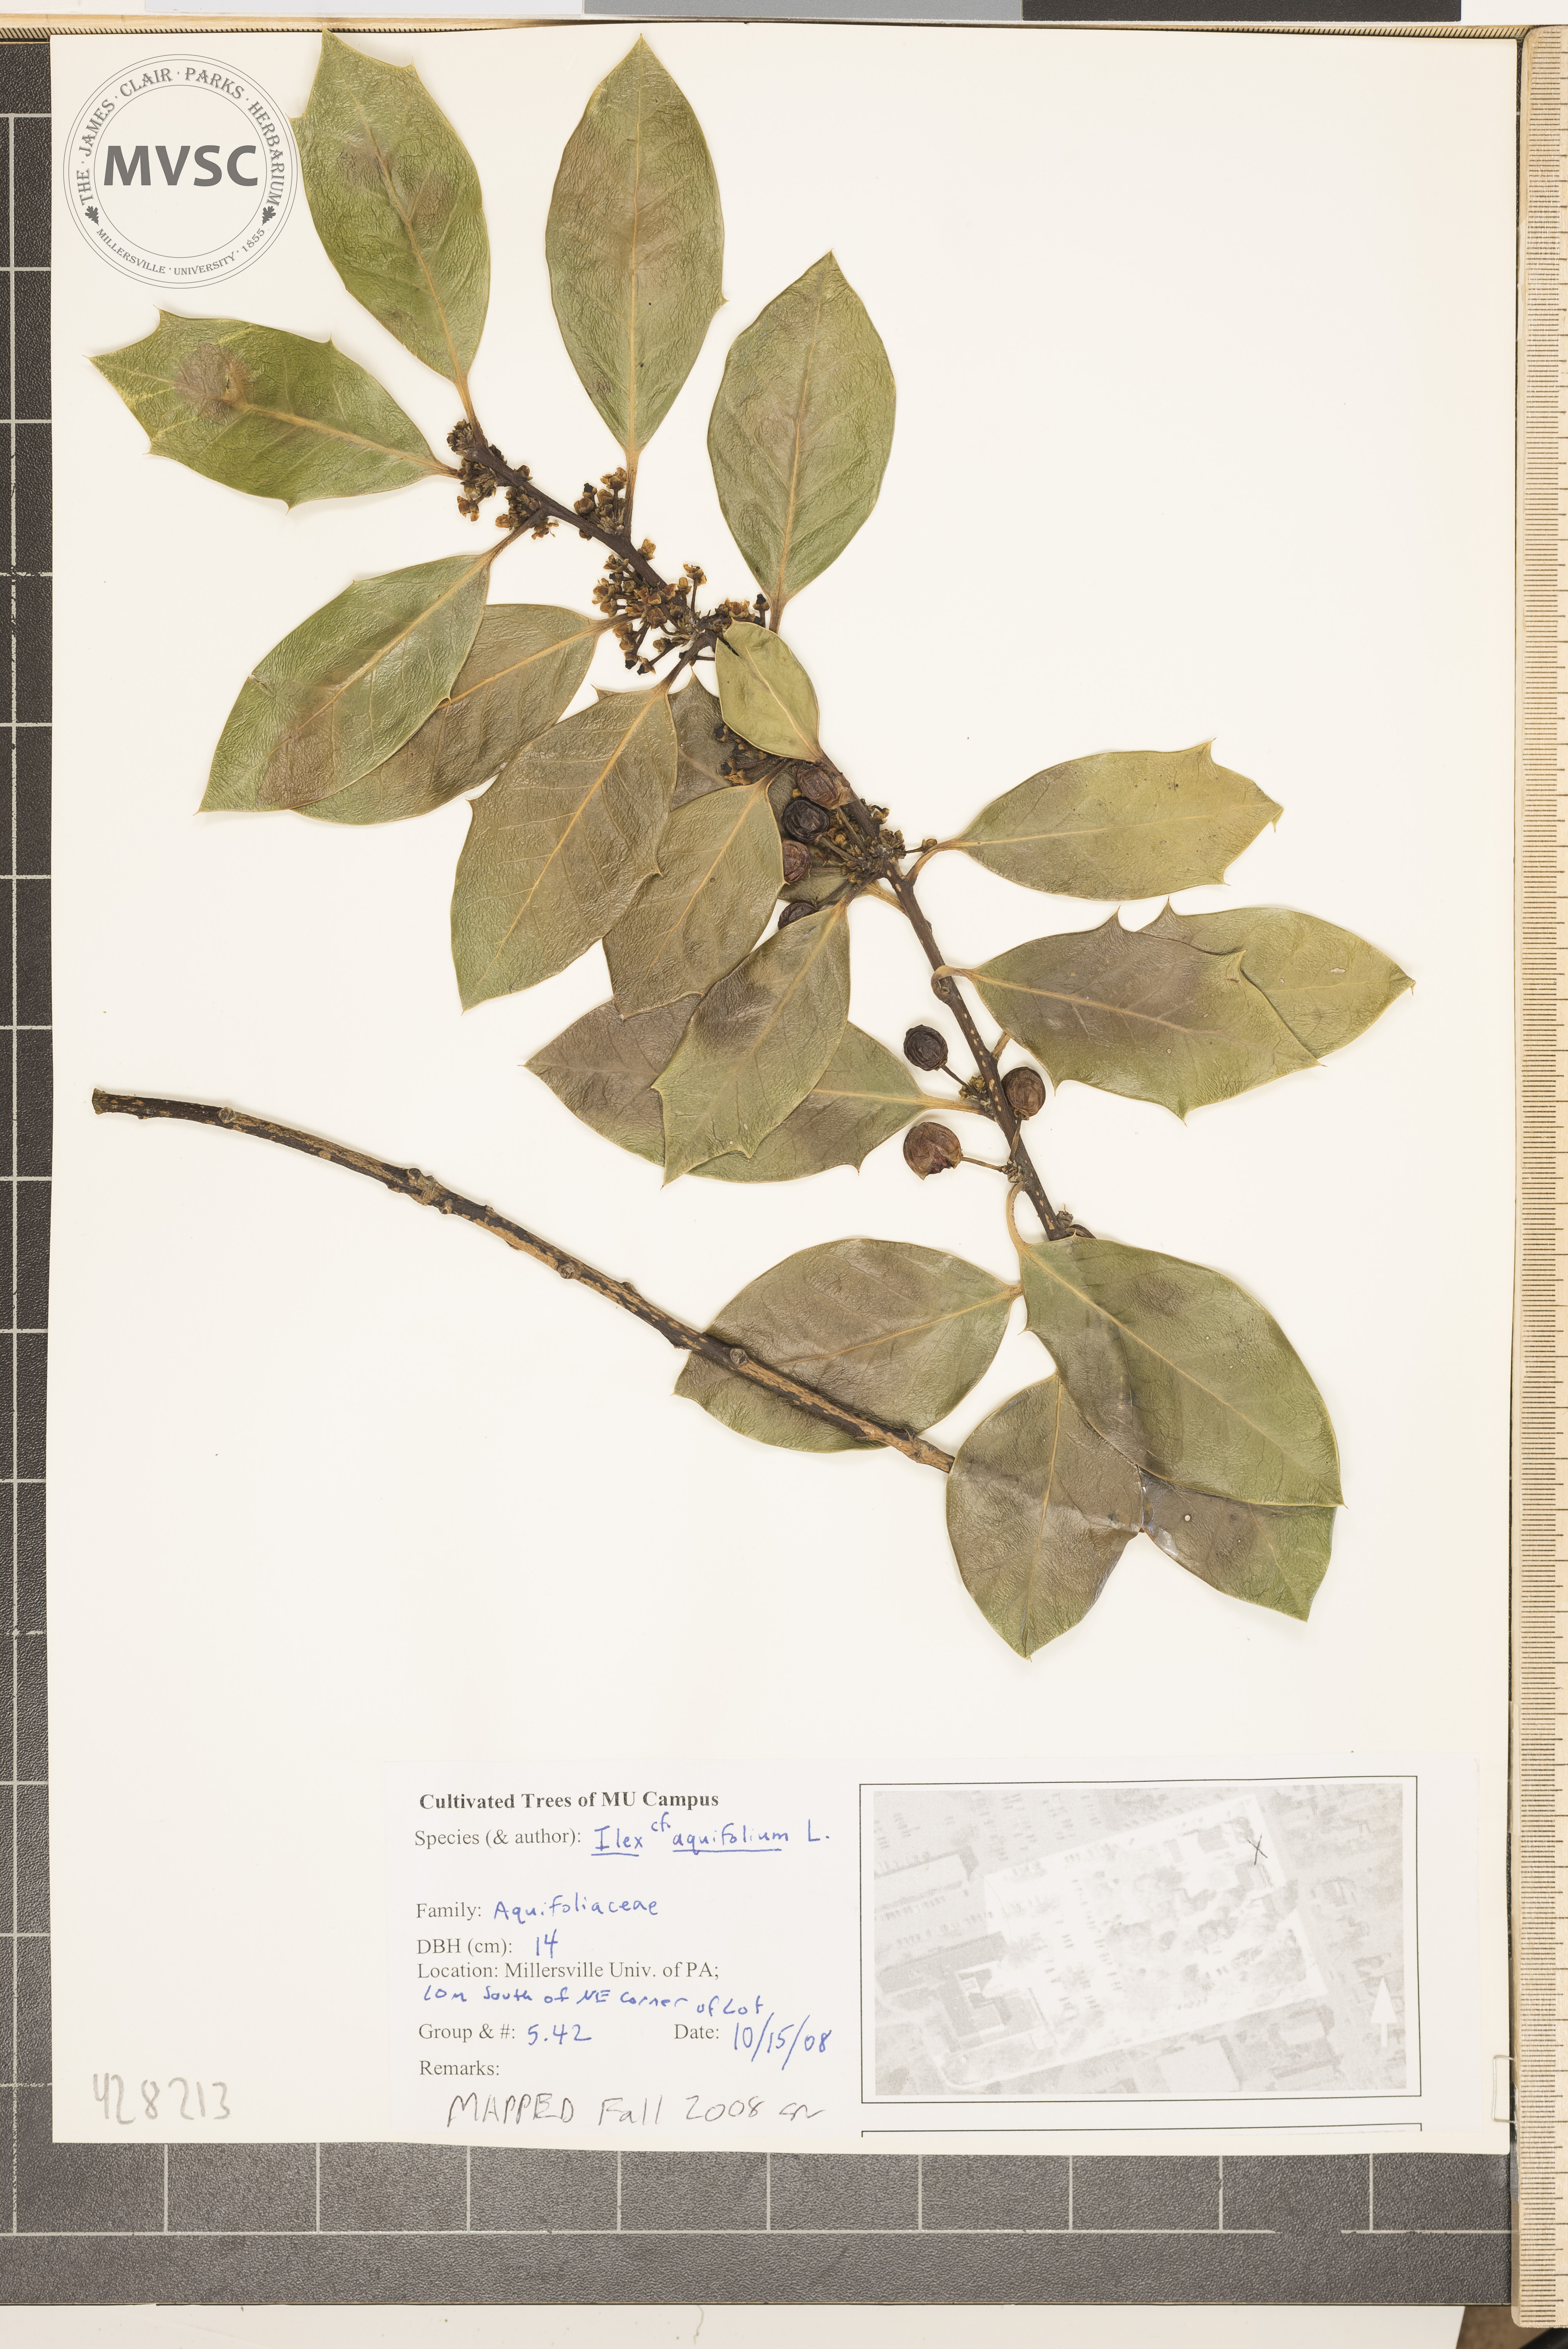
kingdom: Plantae
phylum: Tracheophyta
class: Magnoliopsida
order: Aquifoliales
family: Aquifoliaceae
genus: Ilex
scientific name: Ilex aquifolium
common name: English holly
